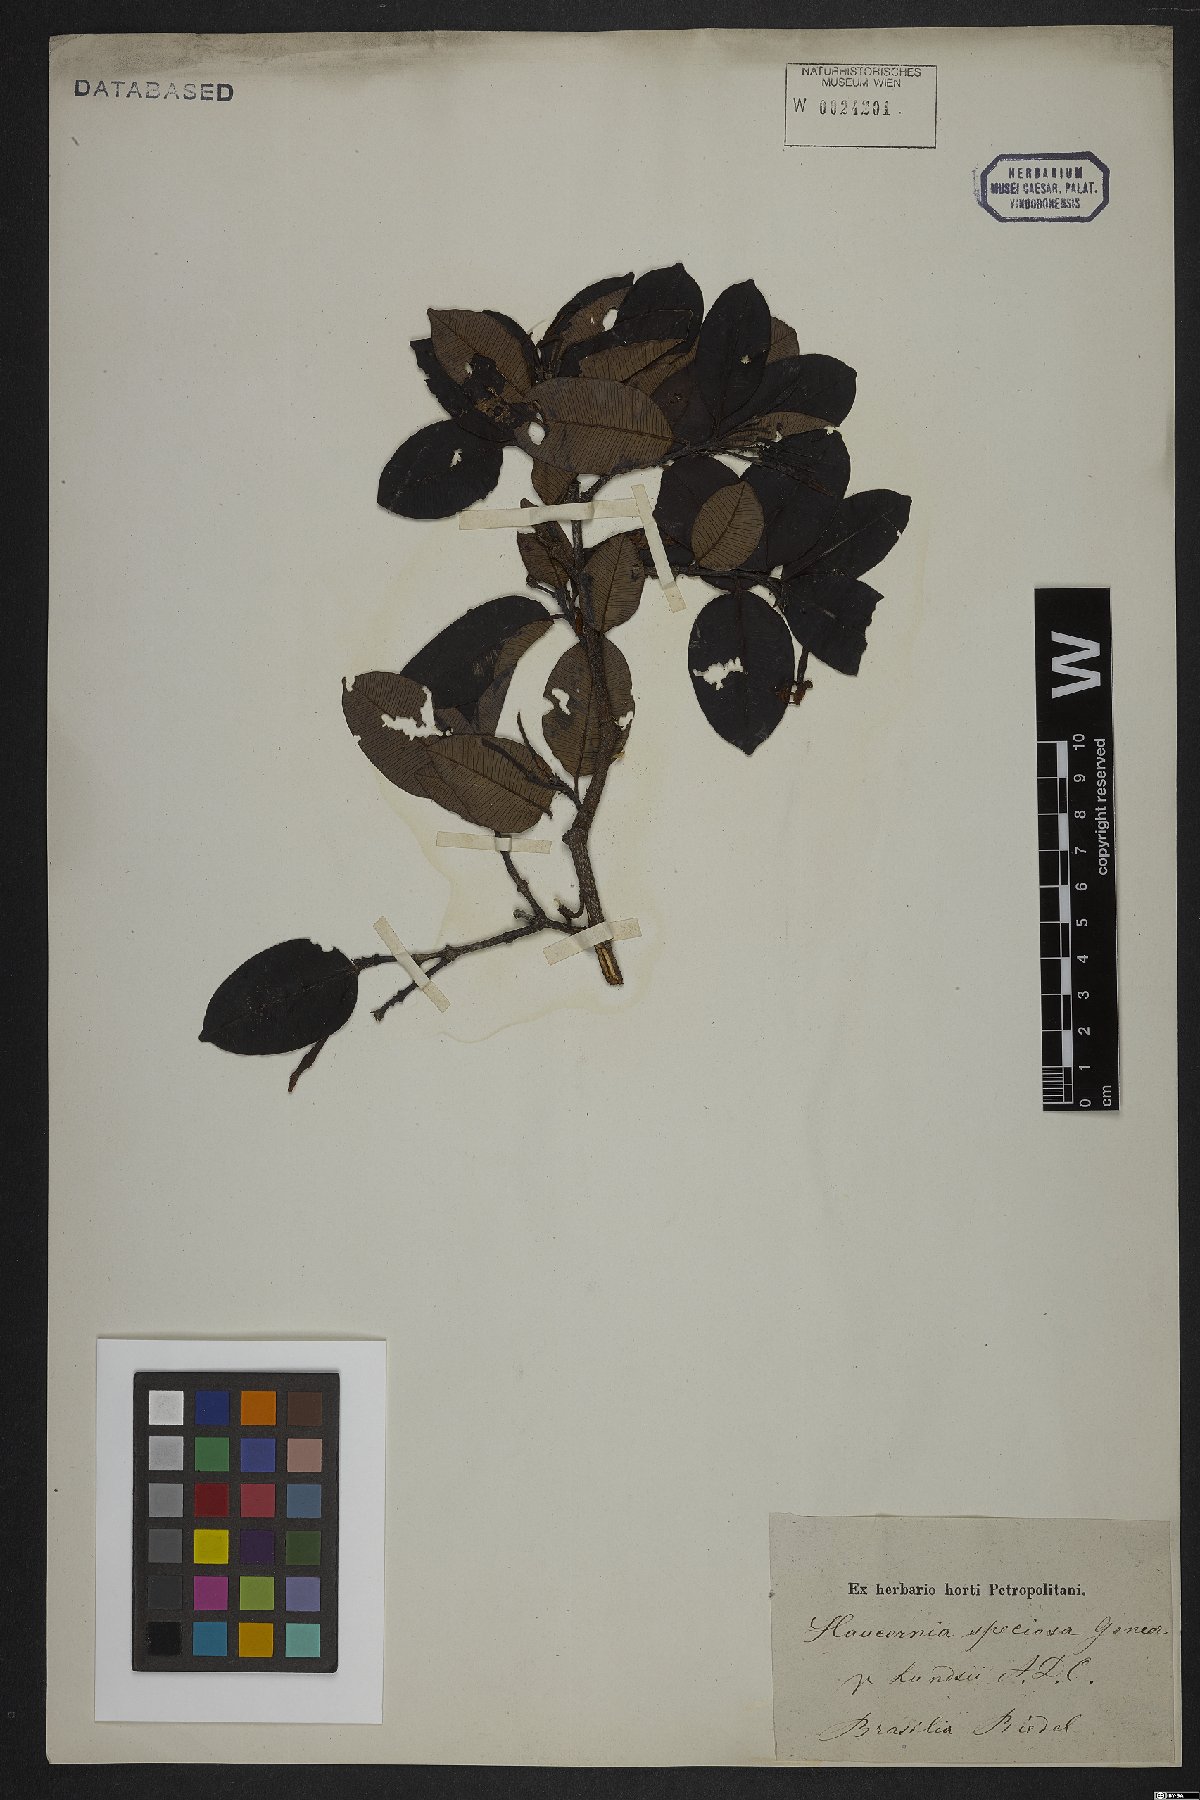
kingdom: Plantae
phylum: Tracheophyta
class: Magnoliopsida
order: Gentianales
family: Apocynaceae
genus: Hancornia
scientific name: Hancornia speciosa
